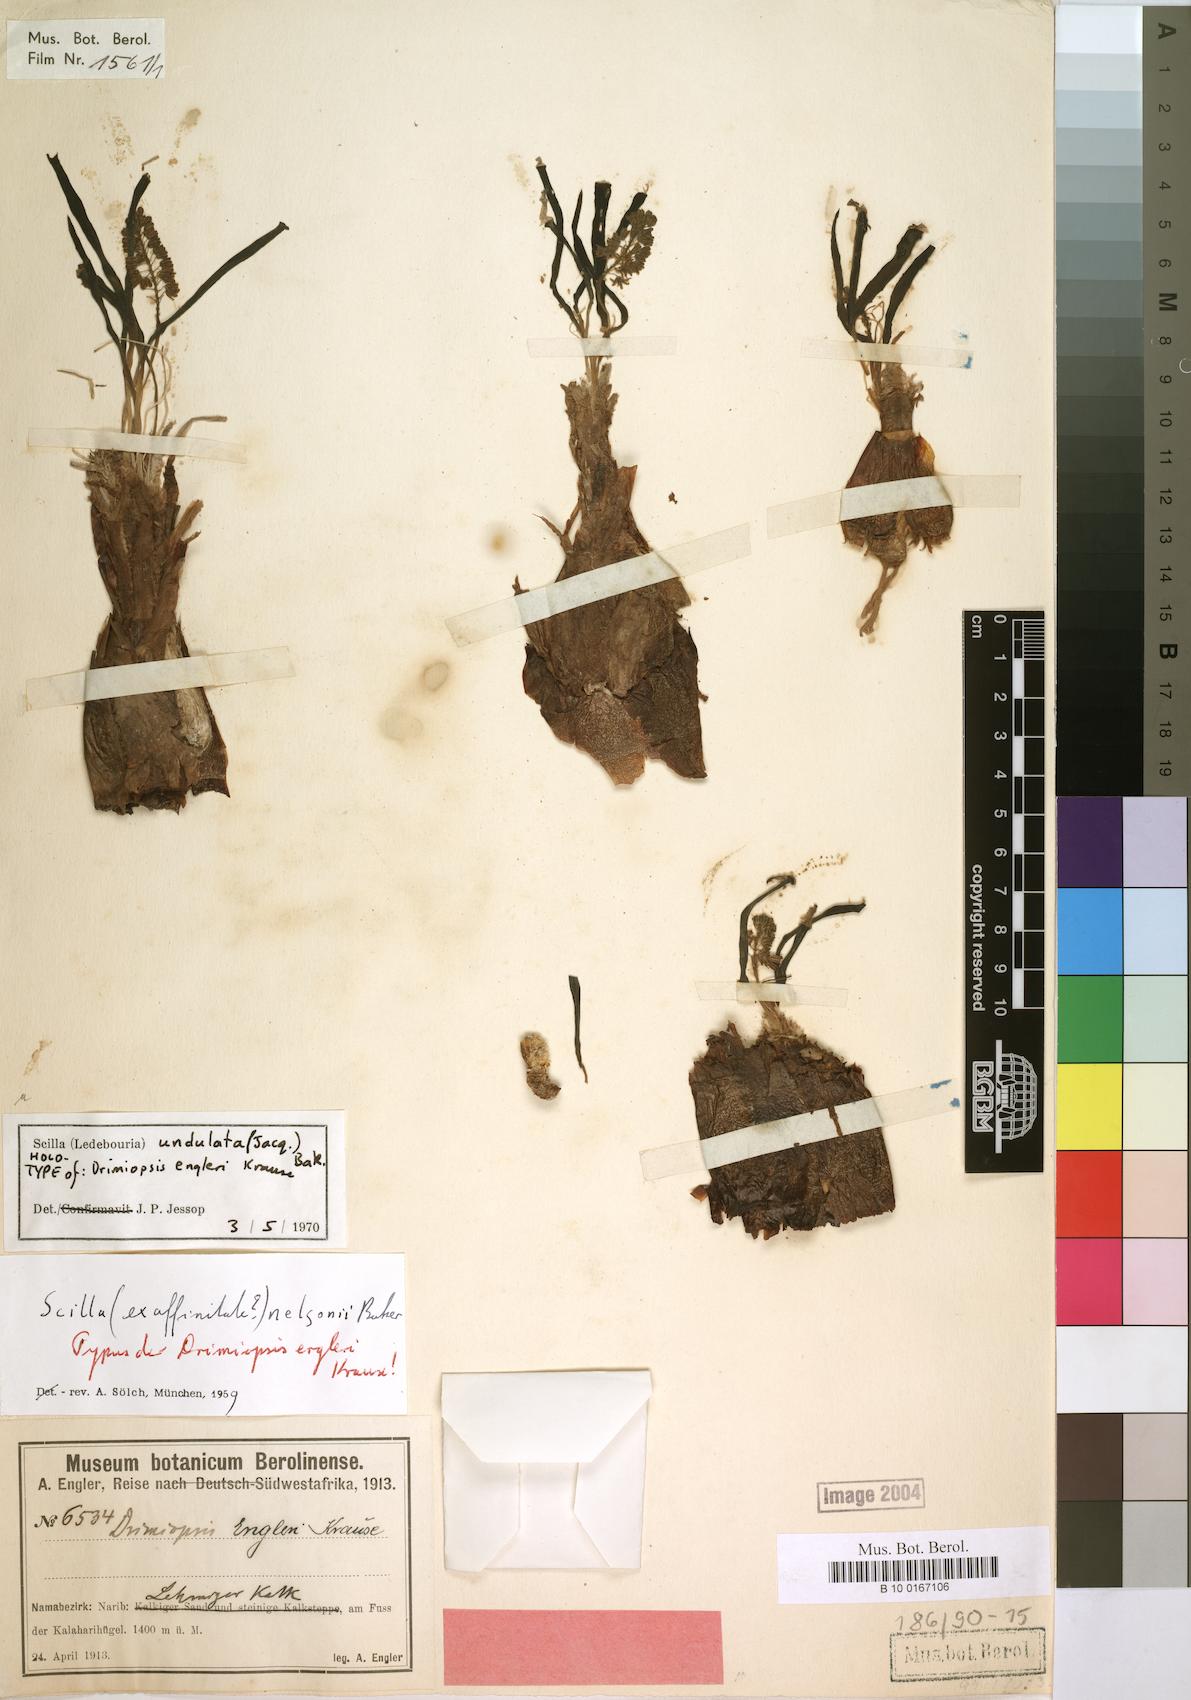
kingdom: Plantae
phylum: Tracheophyta
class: Liliopsida
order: Asparagales
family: Asparagaceae
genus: Ledebouria
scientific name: Ledebouria undulata
